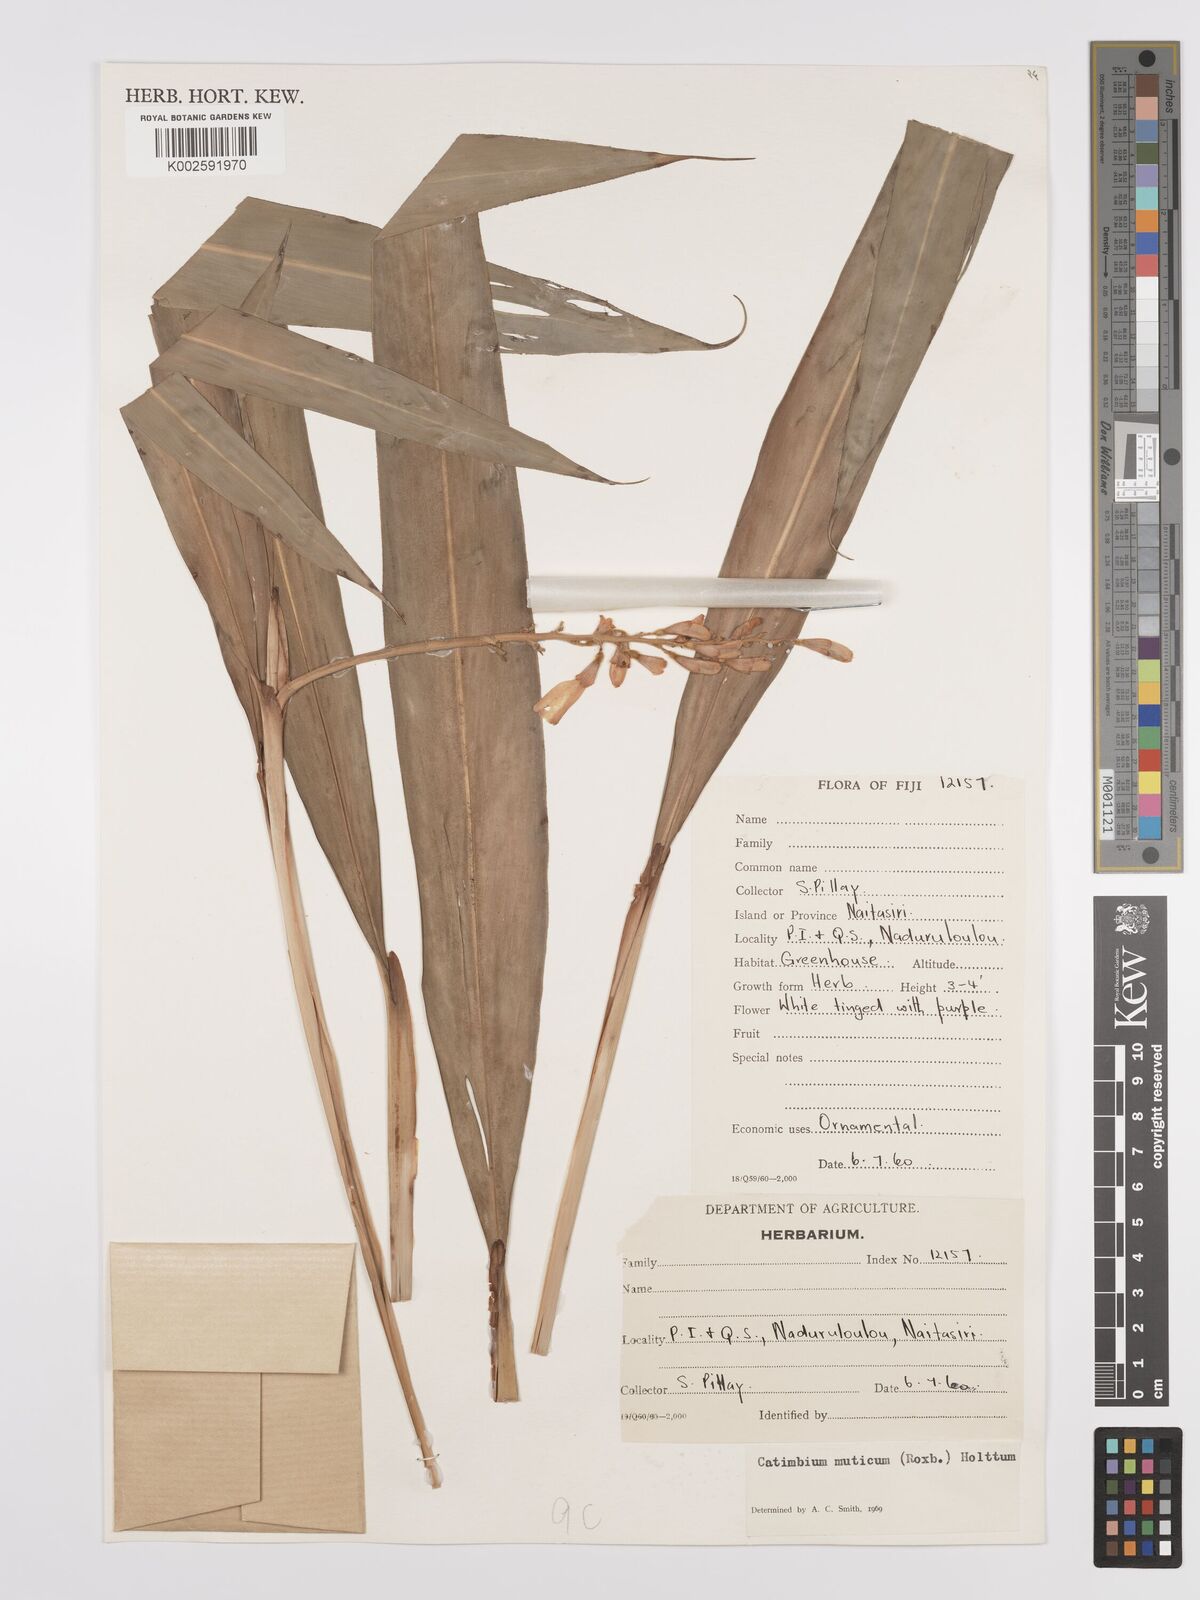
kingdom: Plantae
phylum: Tracheophyta
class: Liliopsida
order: Zingiberales
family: Zingiberaceae
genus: Alpinia
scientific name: Alpinia mutica
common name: Small shell ginger
